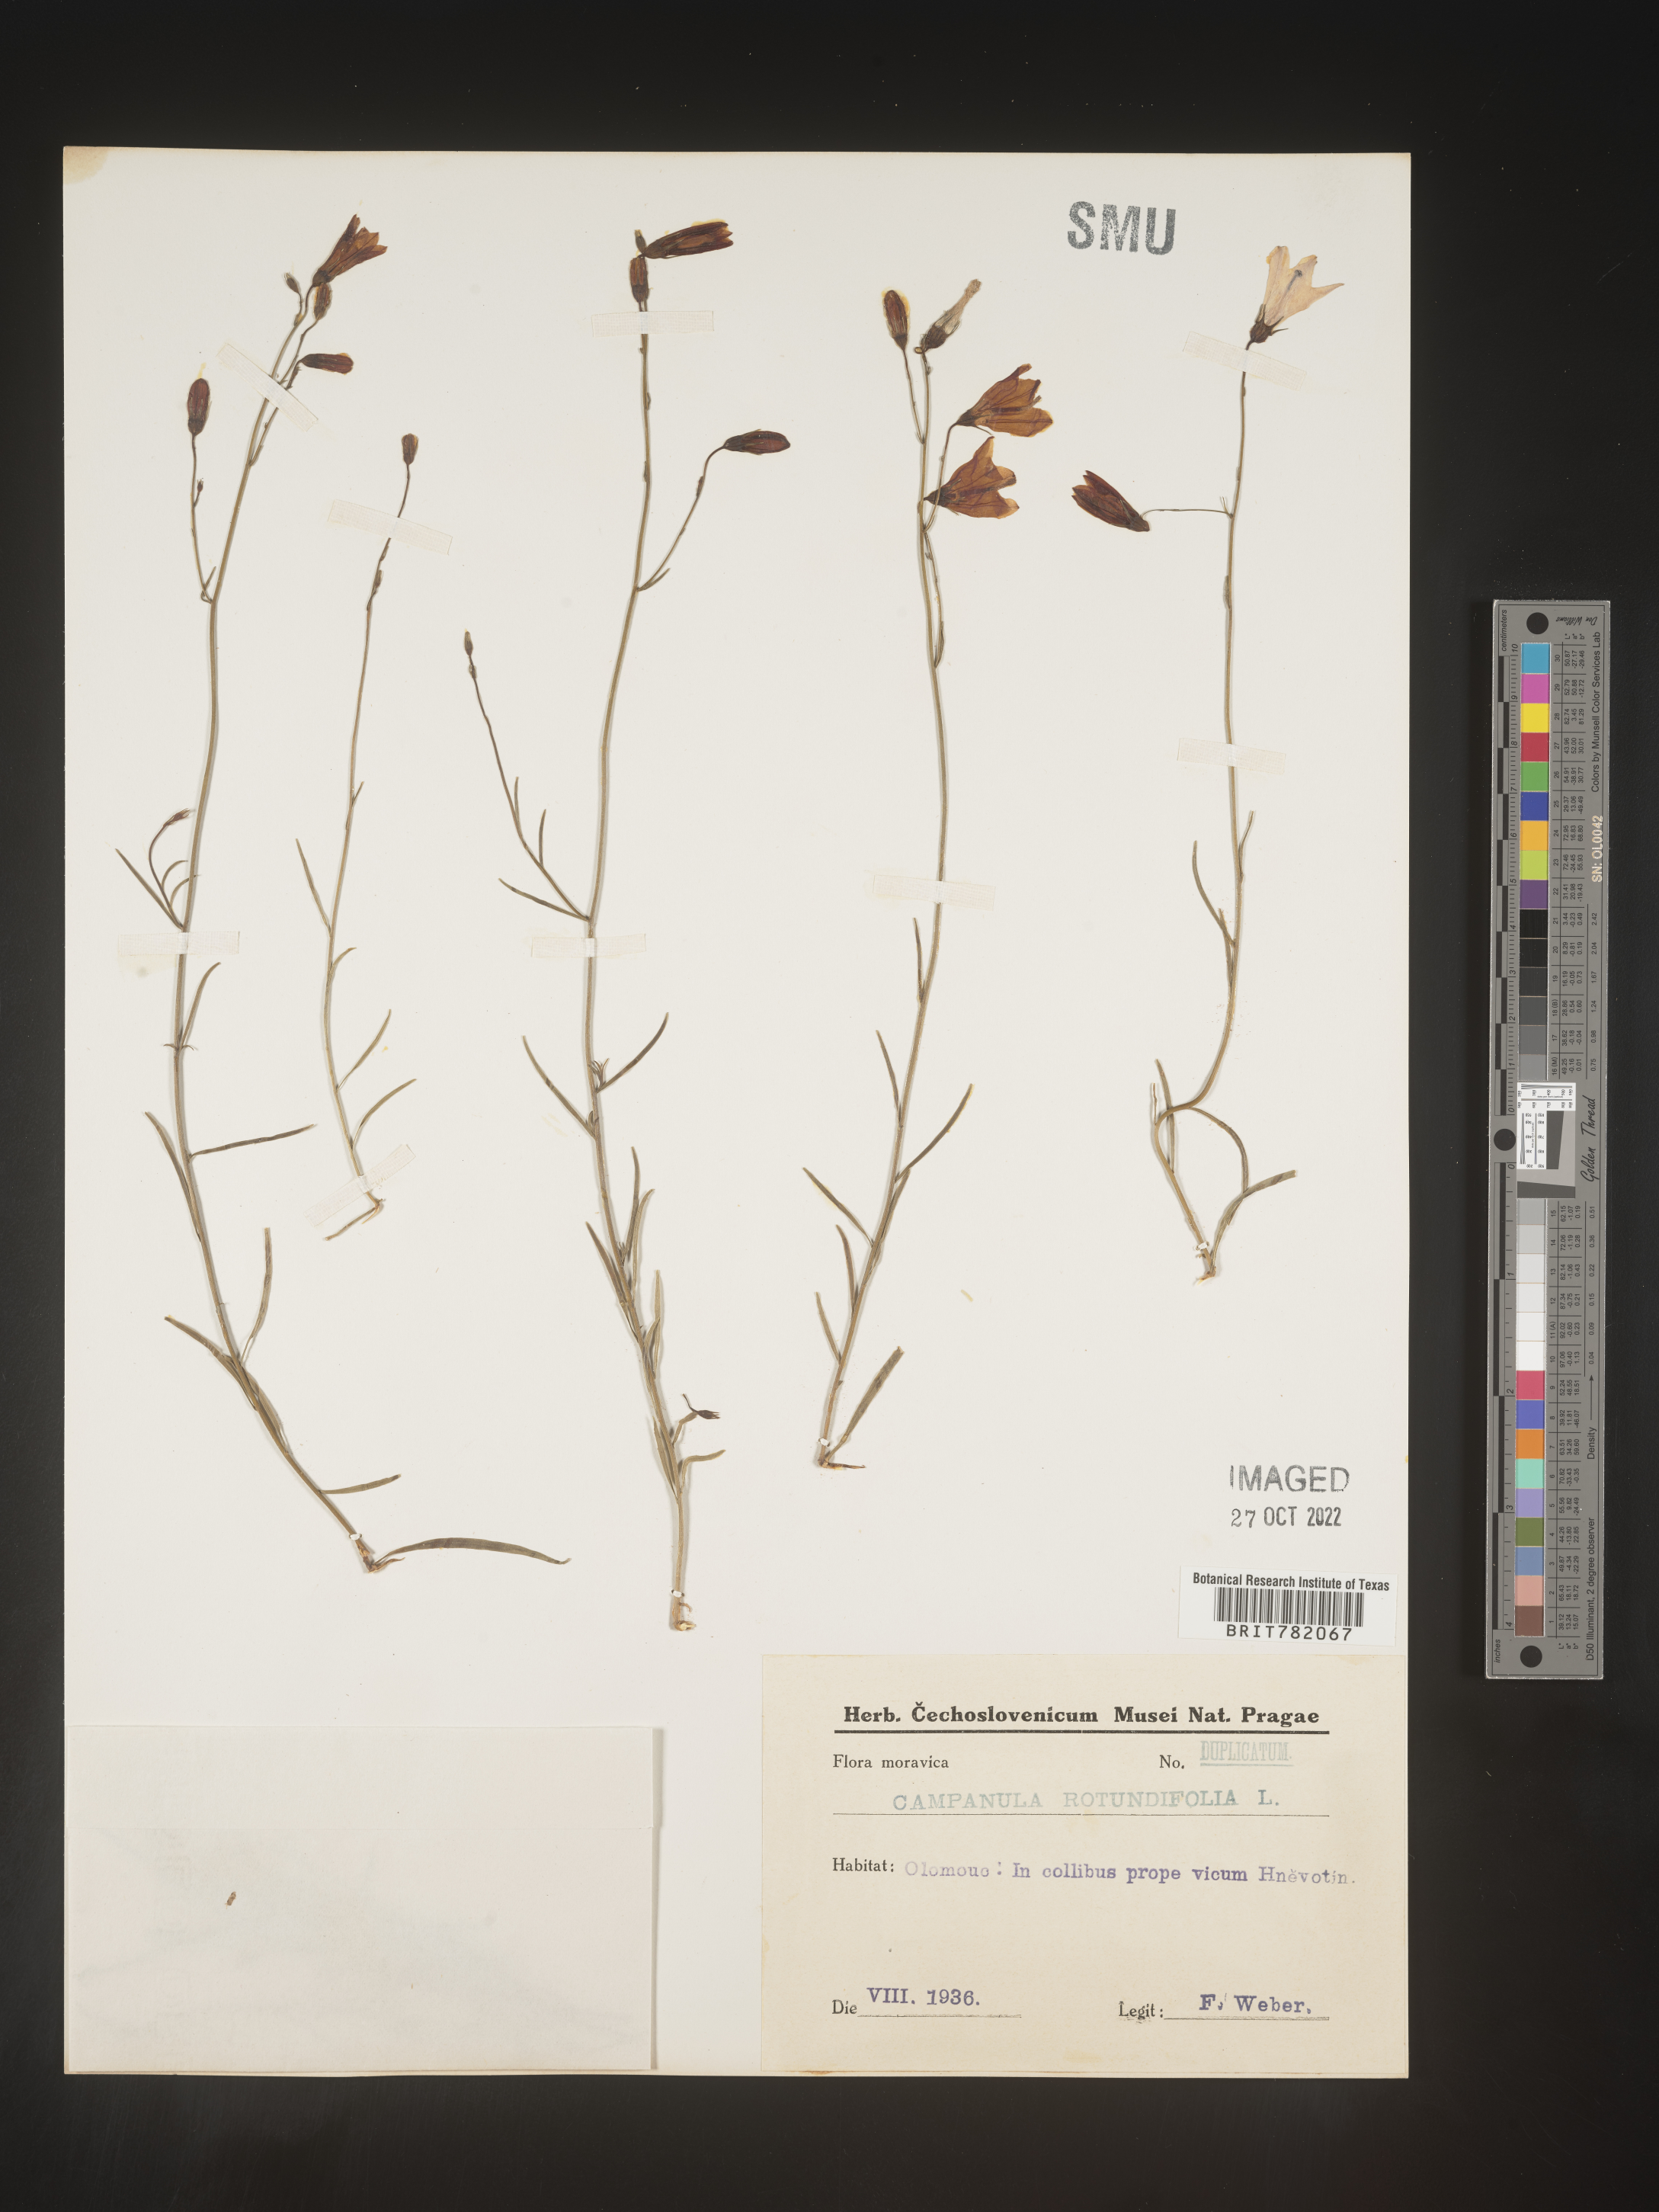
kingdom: Plantae
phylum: Tracheophyta
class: Magnoliopsida
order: Asterales
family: Campanulaceae
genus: Campanula
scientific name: Campanula rotundifolia
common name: Harebell
